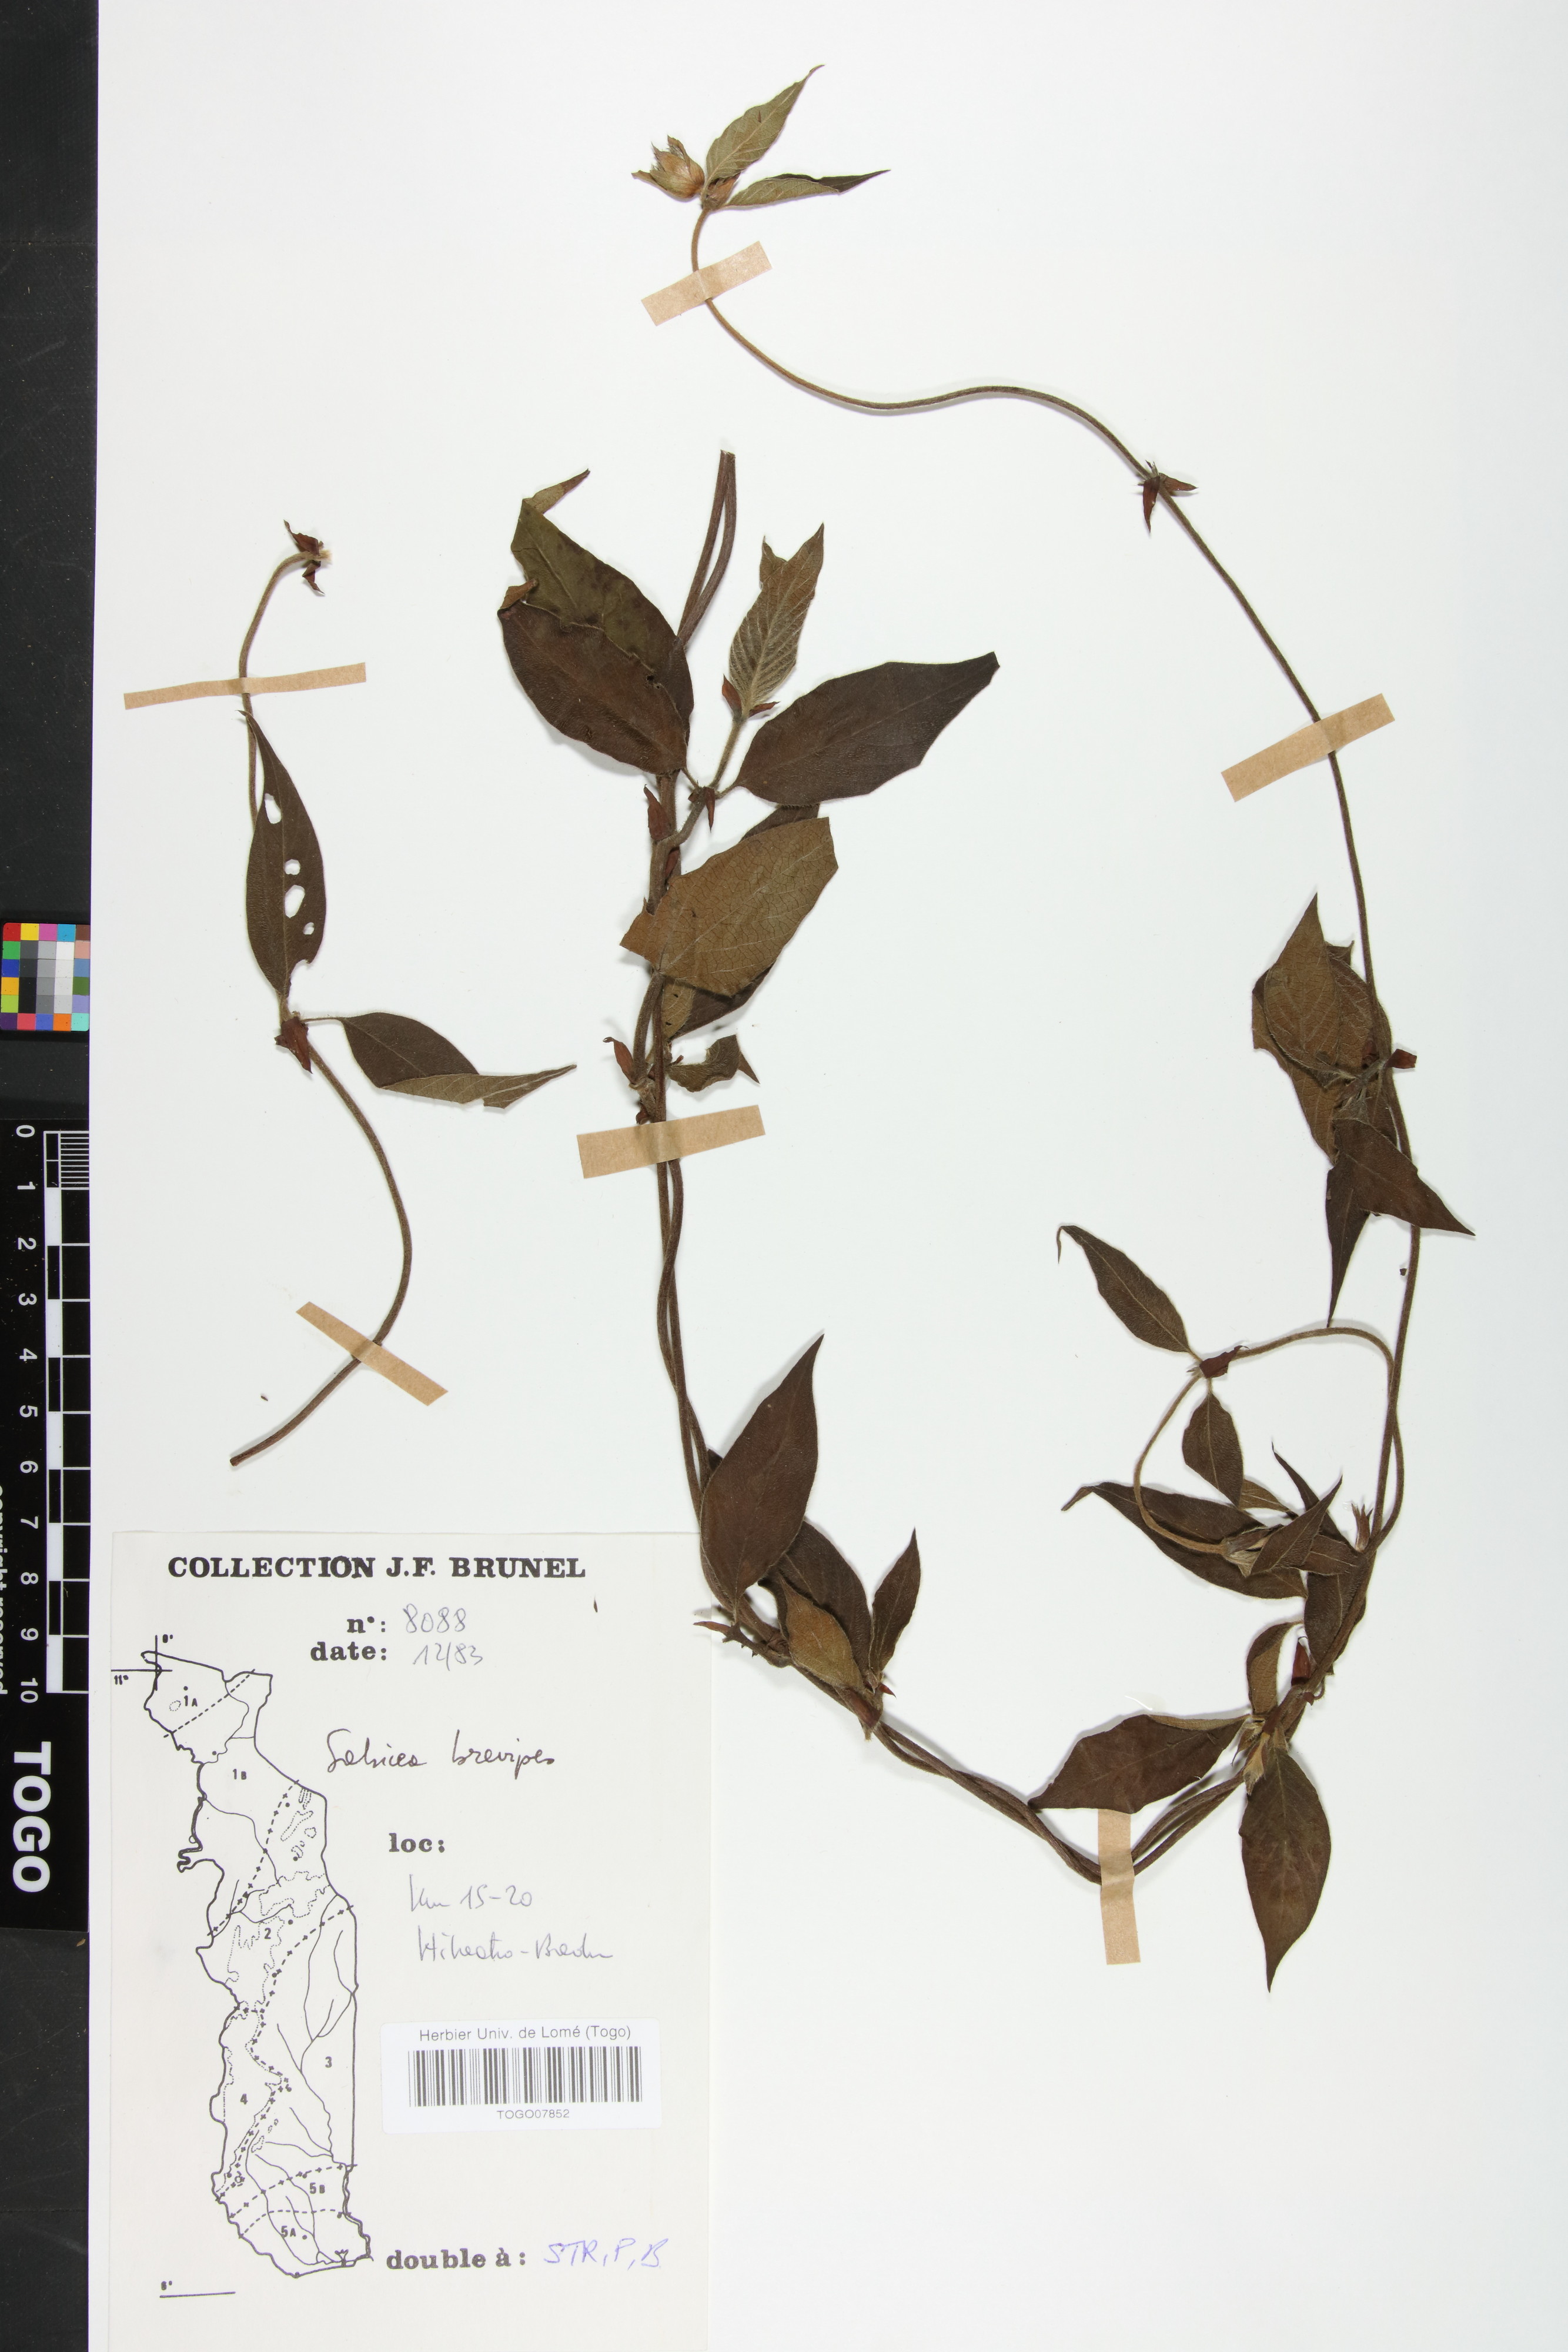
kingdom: Plantae
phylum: Tracheophyta
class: Magnoliopsida
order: Gentianales
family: Rubiaceae
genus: Sabicea
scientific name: Sabicea brevipes
